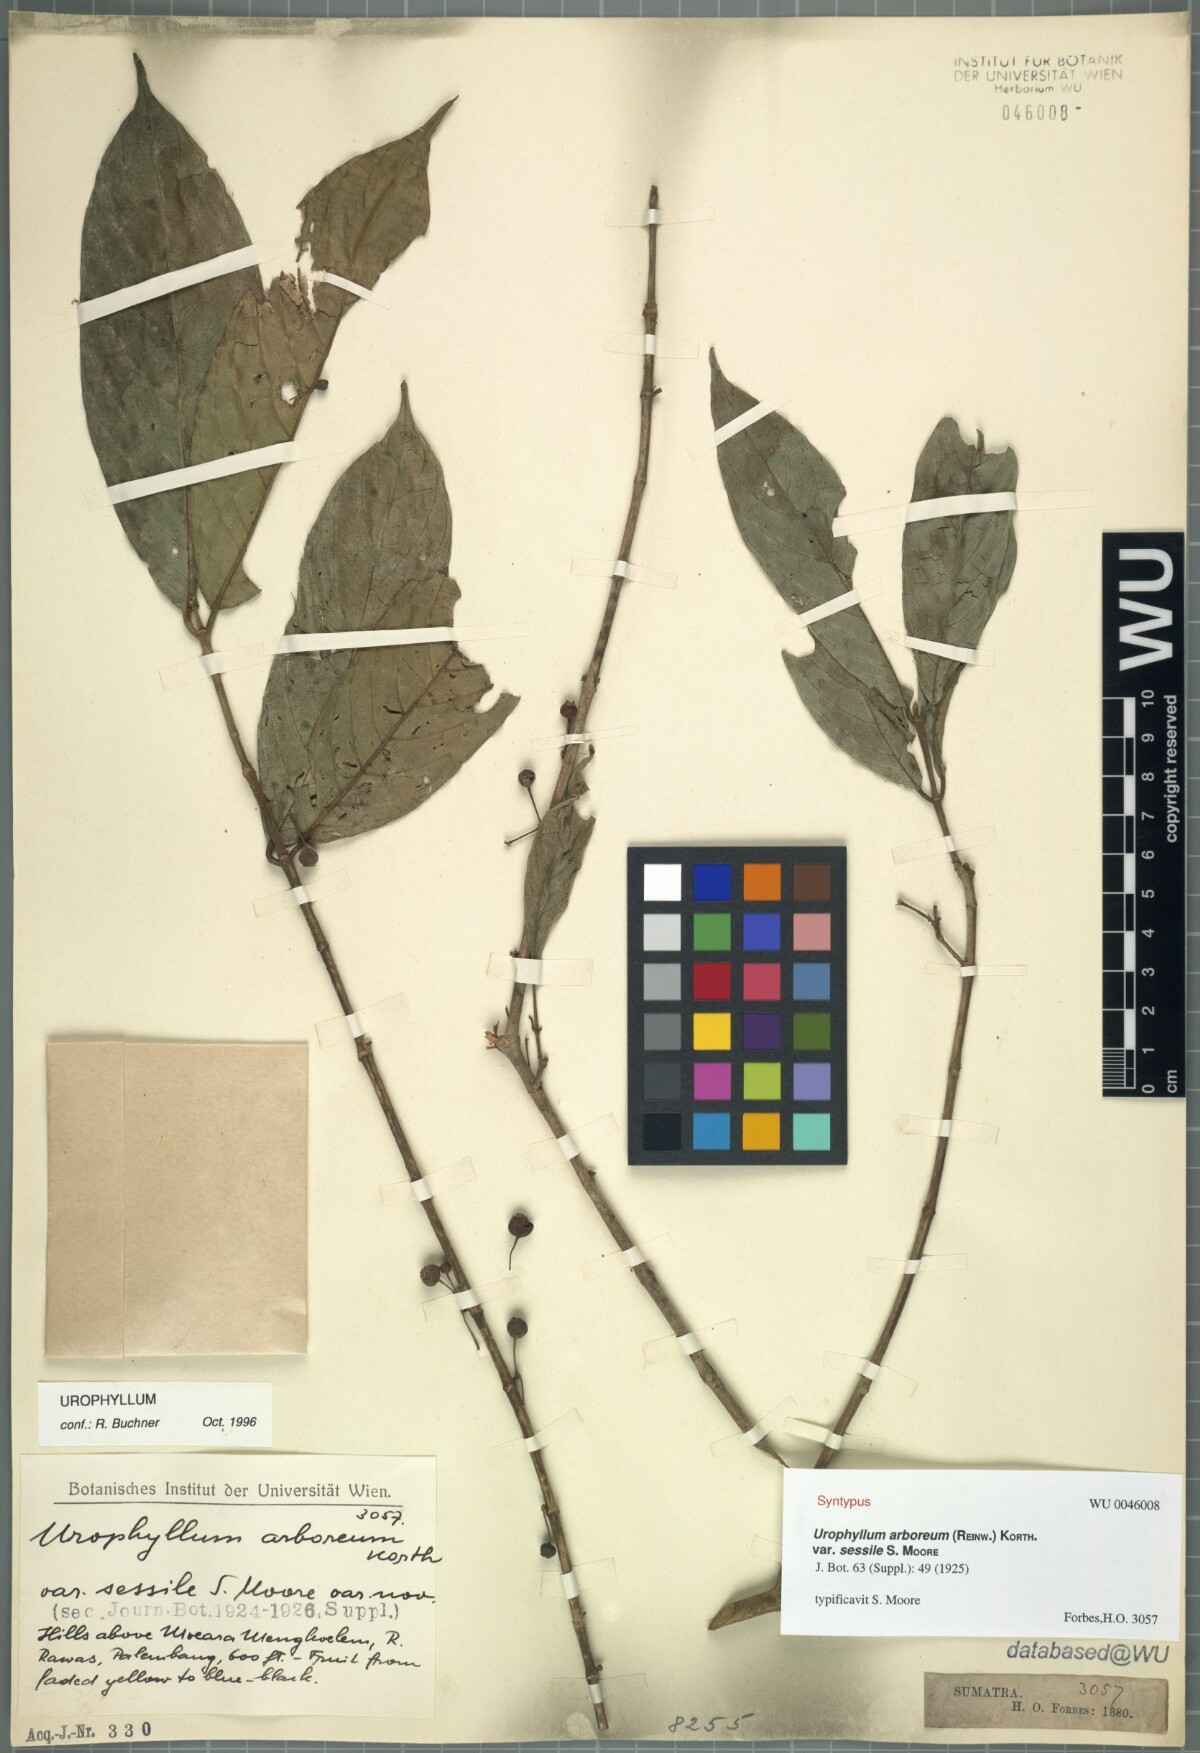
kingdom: Plantae
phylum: Tracheophyta
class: Magnoliopsida
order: Gentianales
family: Rubiaceae
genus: Urophyllum
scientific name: Urophyllum arboreum
